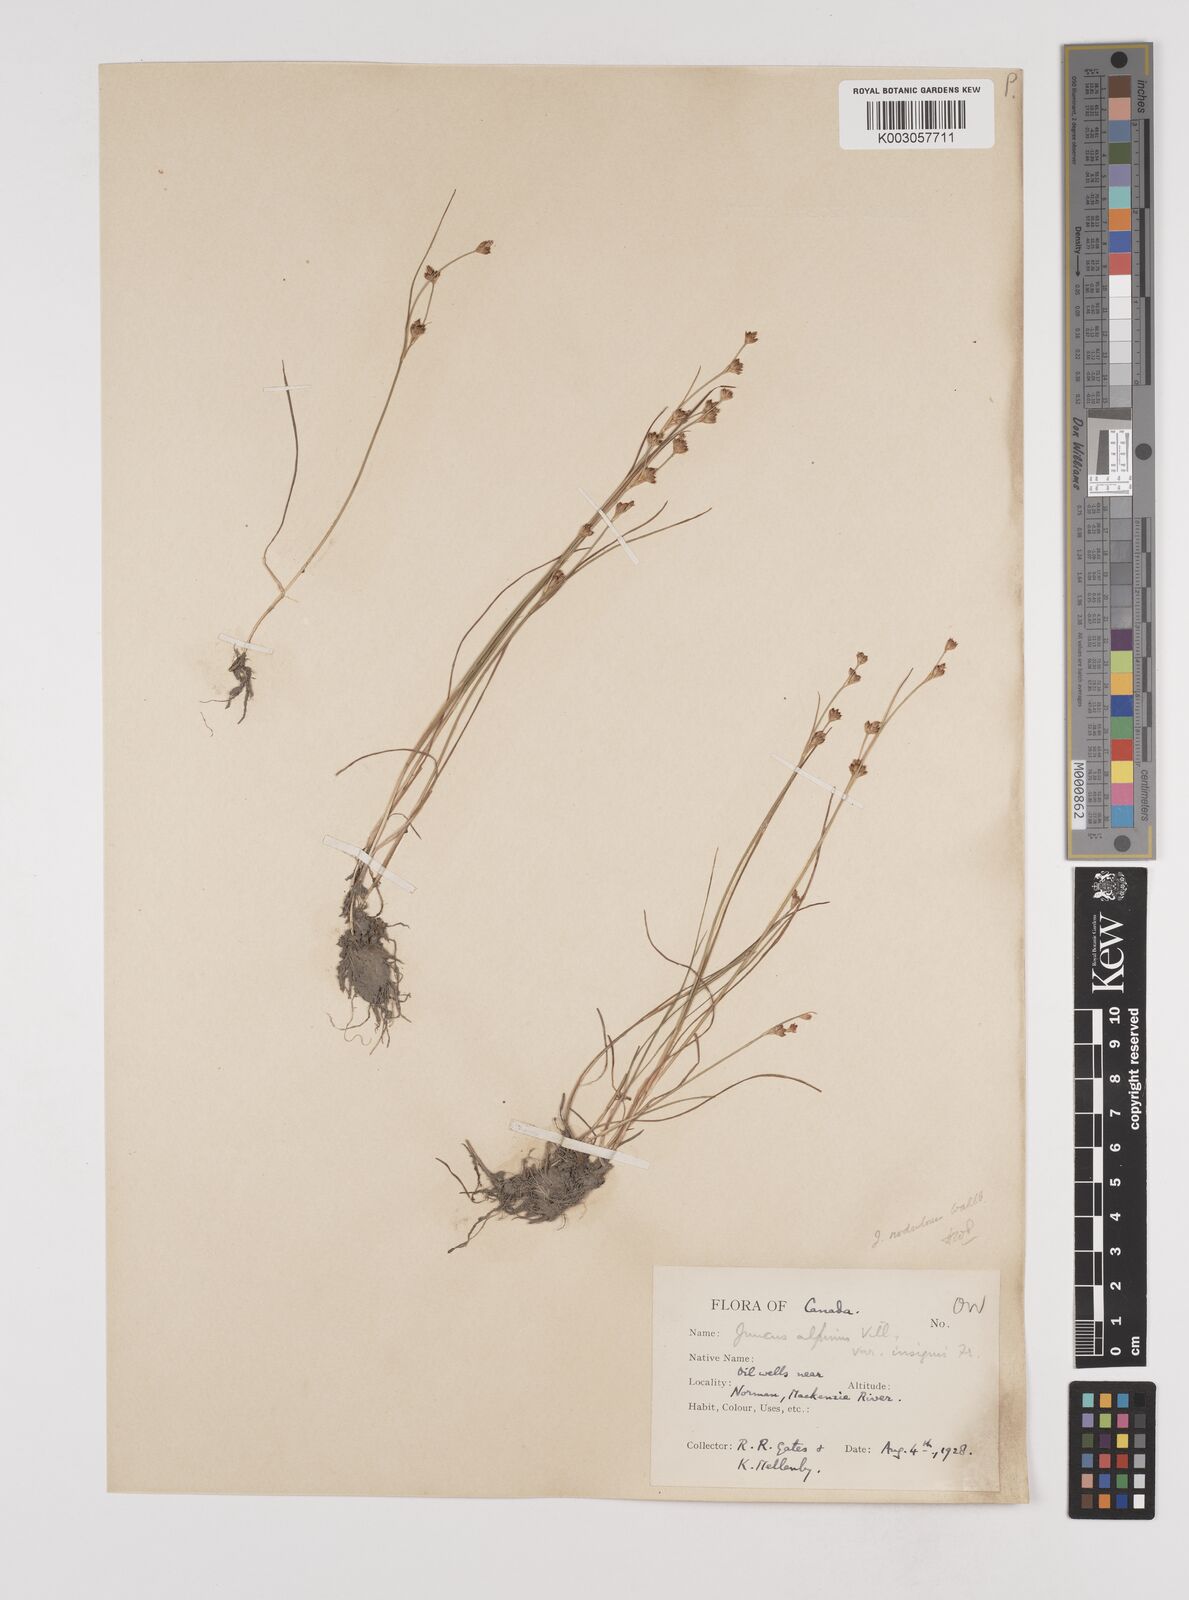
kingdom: Plantae
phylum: Tracheophyta
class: Liliopsida
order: Poales
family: Juncaceae
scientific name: Juncaceae
